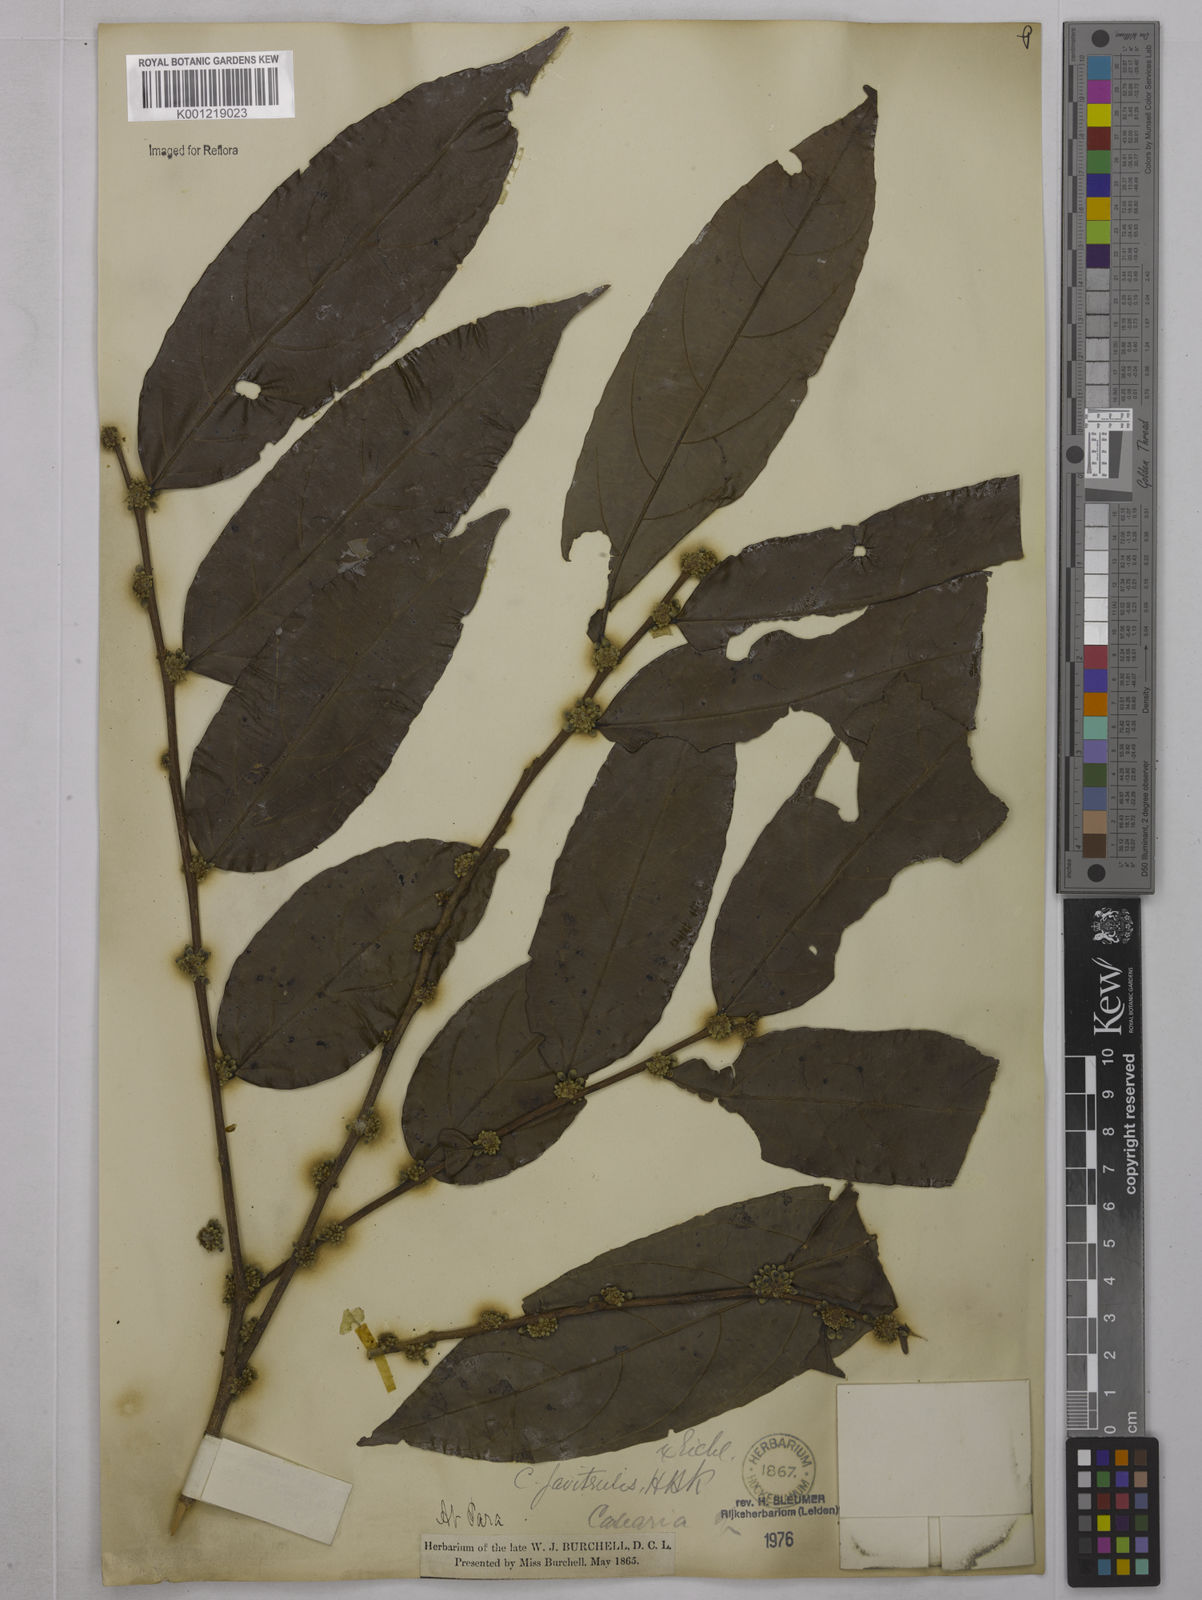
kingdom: Plantae
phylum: Tracheophyta
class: Magnoliopsida
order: Malpighiales
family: Salicaceae
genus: Piparea
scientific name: Piparea multiflora
